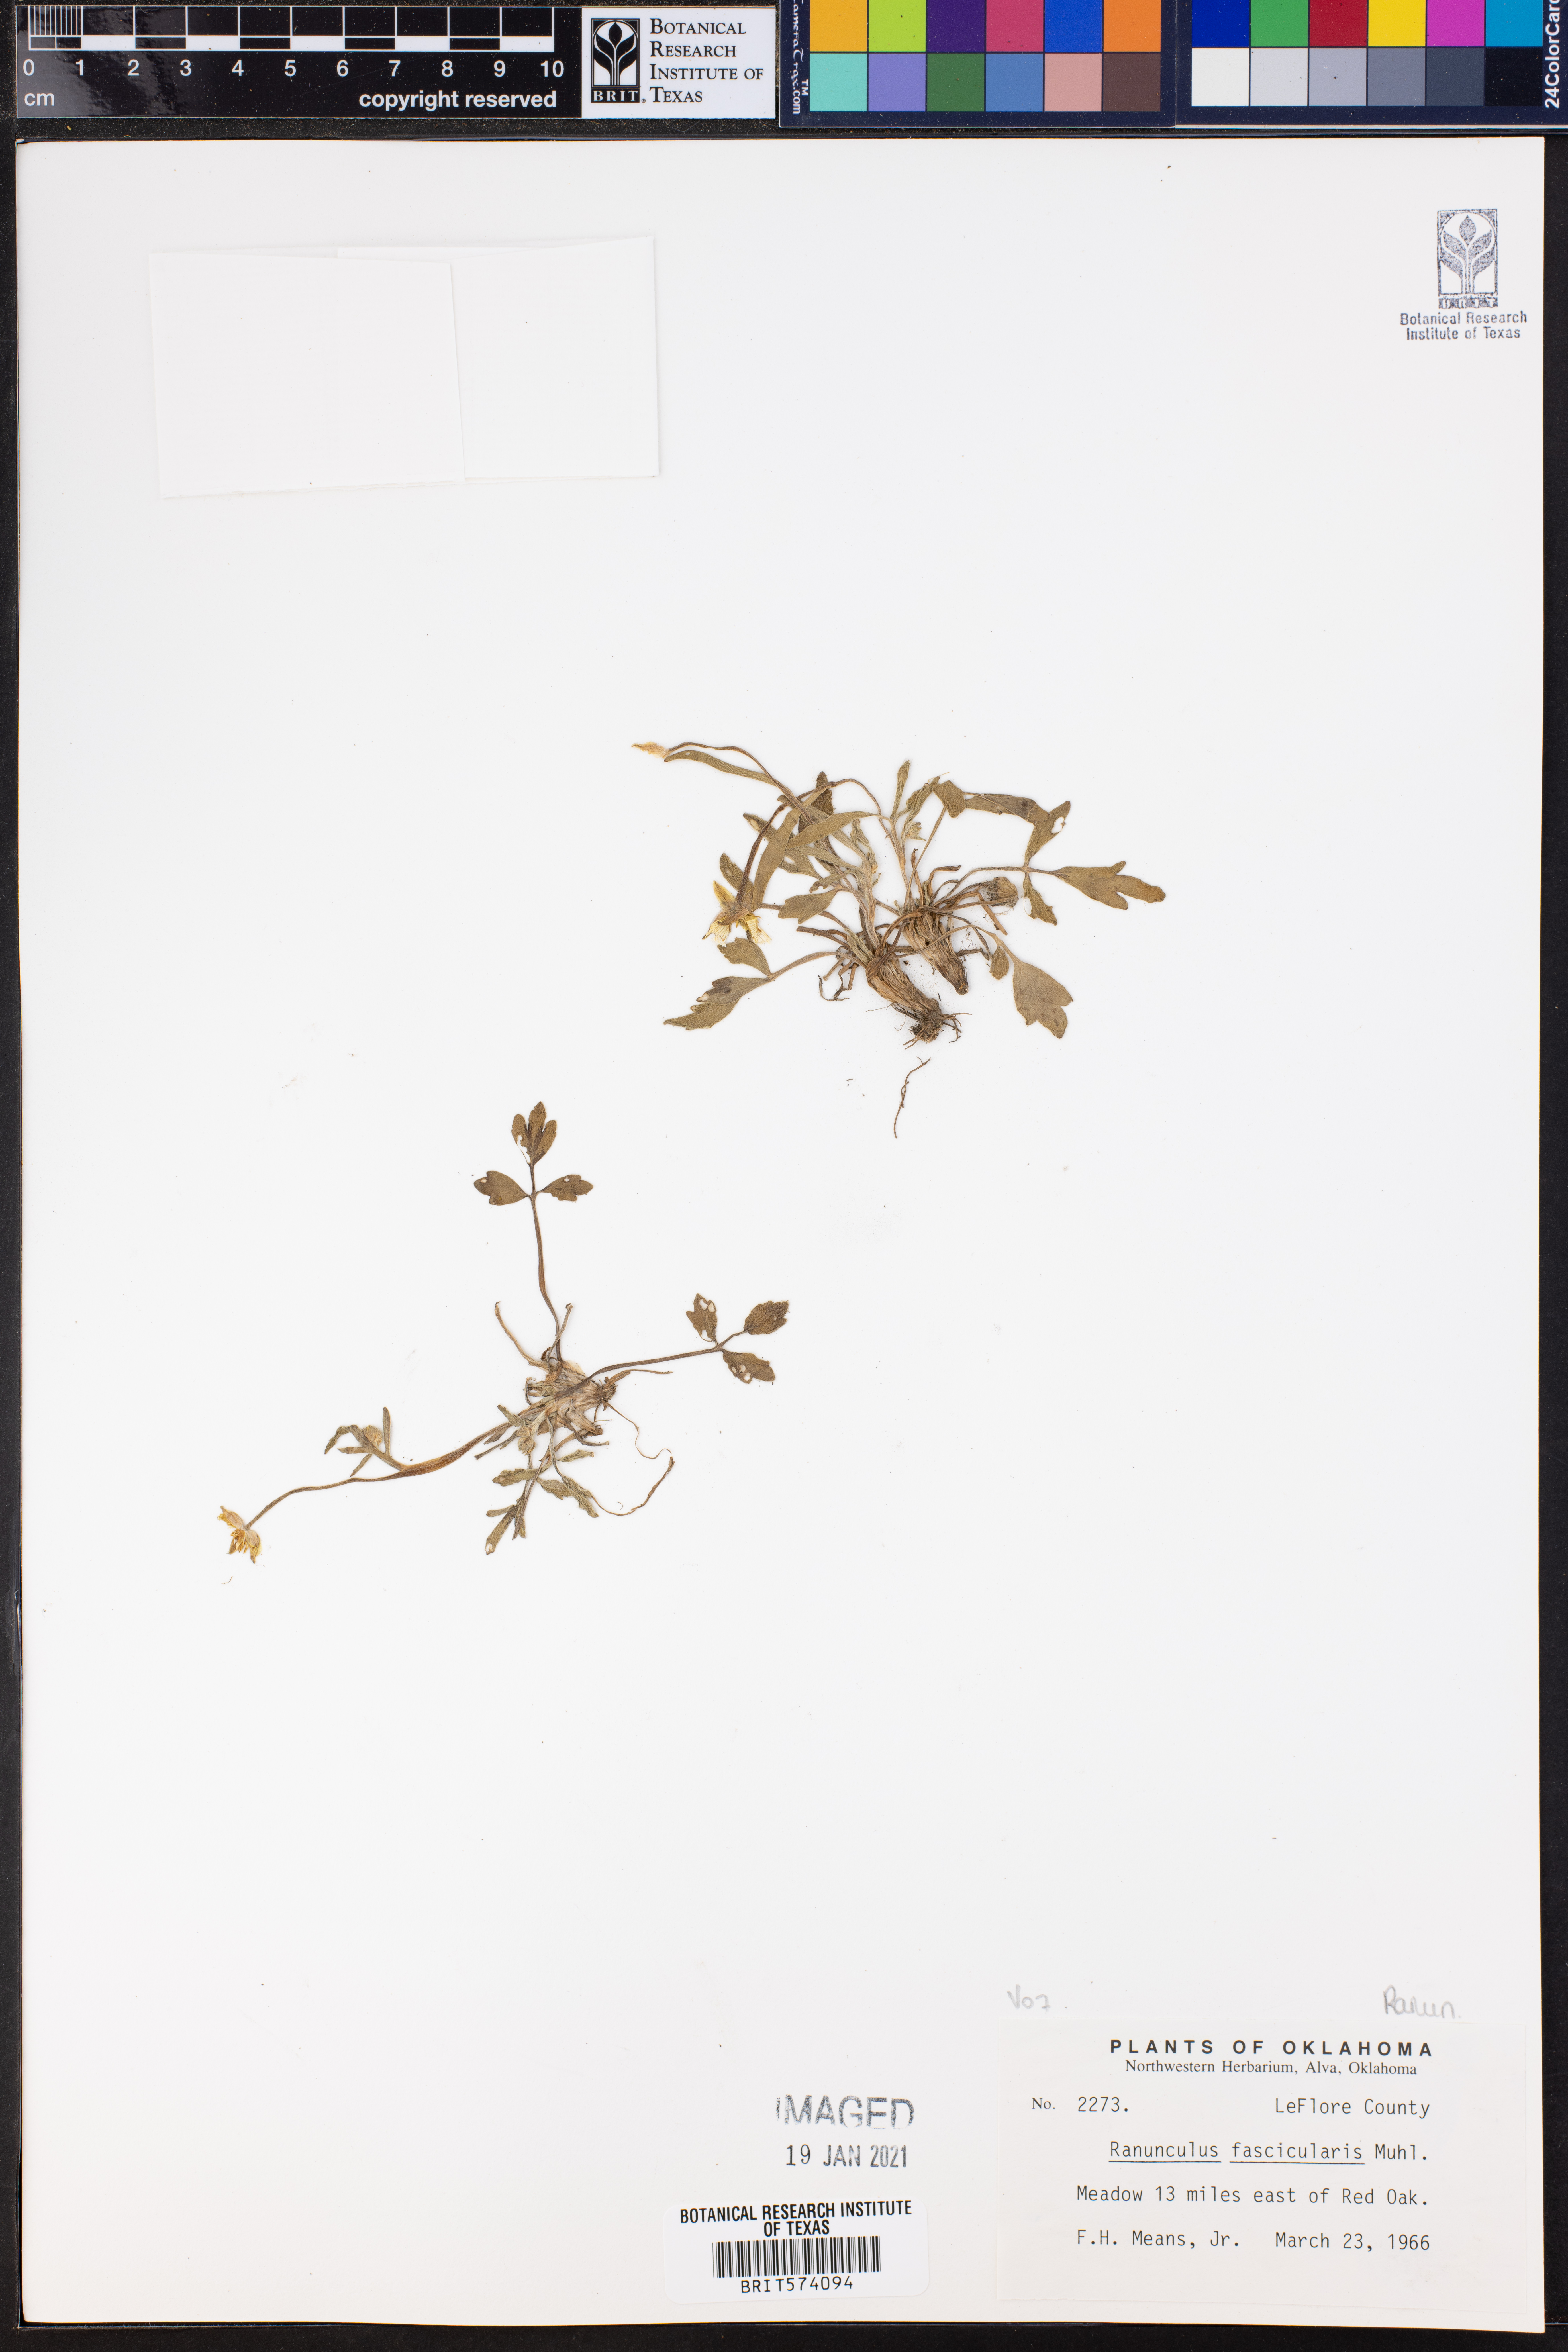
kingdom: Plantae
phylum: Tracheophyta
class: Magnoliopsida
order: Ranunculales
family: Ranunculaceae
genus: Ranunculus
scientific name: Ranunculus fascicularis
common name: Early buttercup
